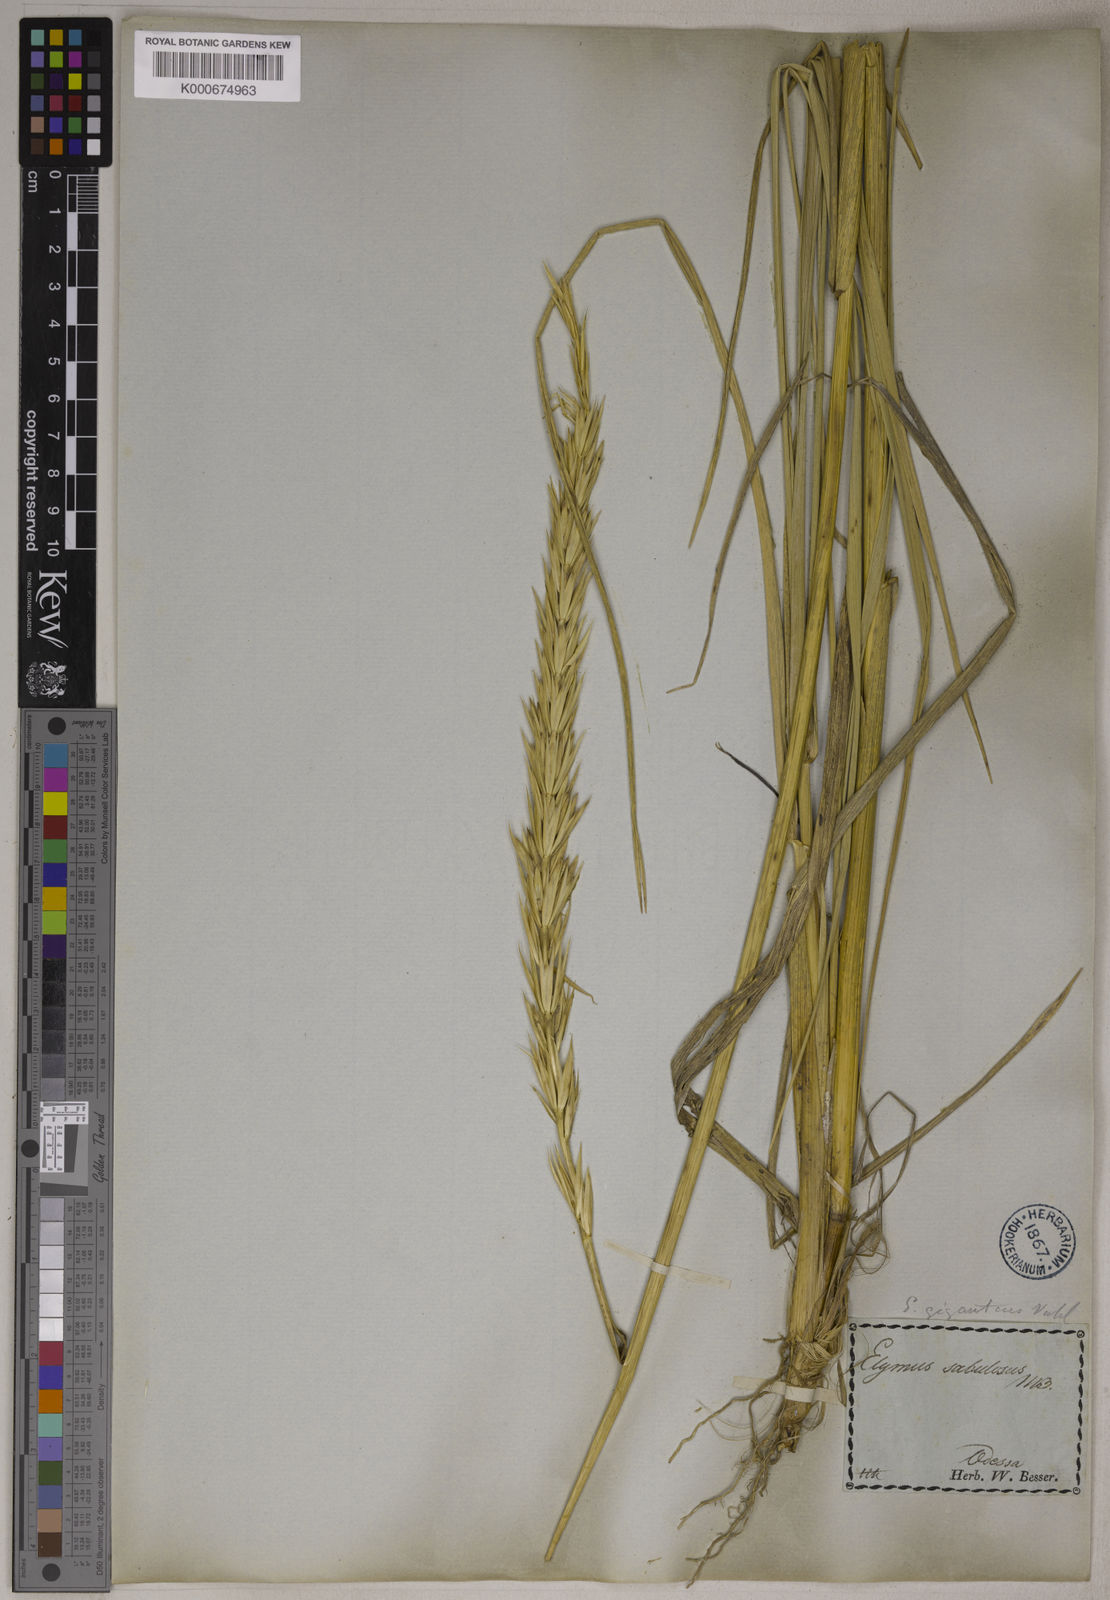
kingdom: Plantae
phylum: Tracheophyta
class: Liliopsida
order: Poales
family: Poaceae
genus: Leymus
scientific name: Leymus racemosus
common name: Mammoth wildrye
